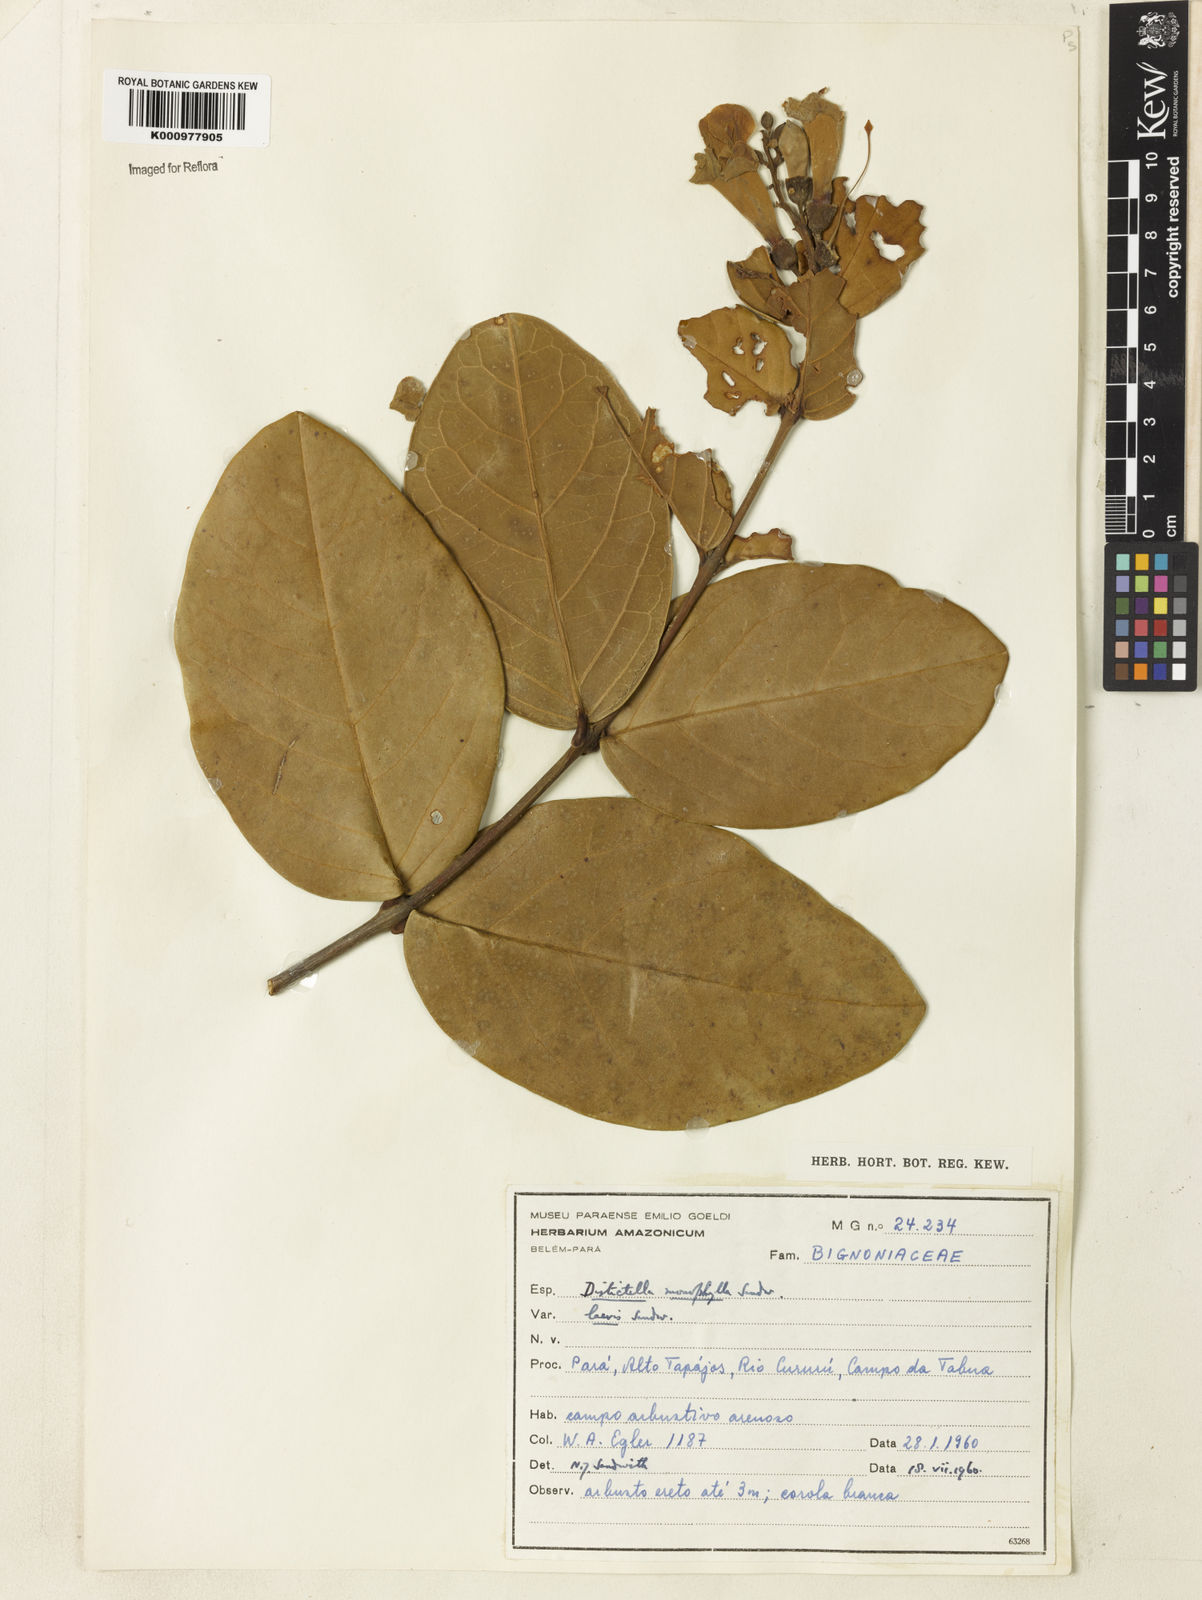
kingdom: Plantae
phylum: Tracheophyta
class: Magnoliopsida
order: Lamiales
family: Bignoniaceae
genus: Amphilophium
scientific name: Amphilophium magnoliifolium
